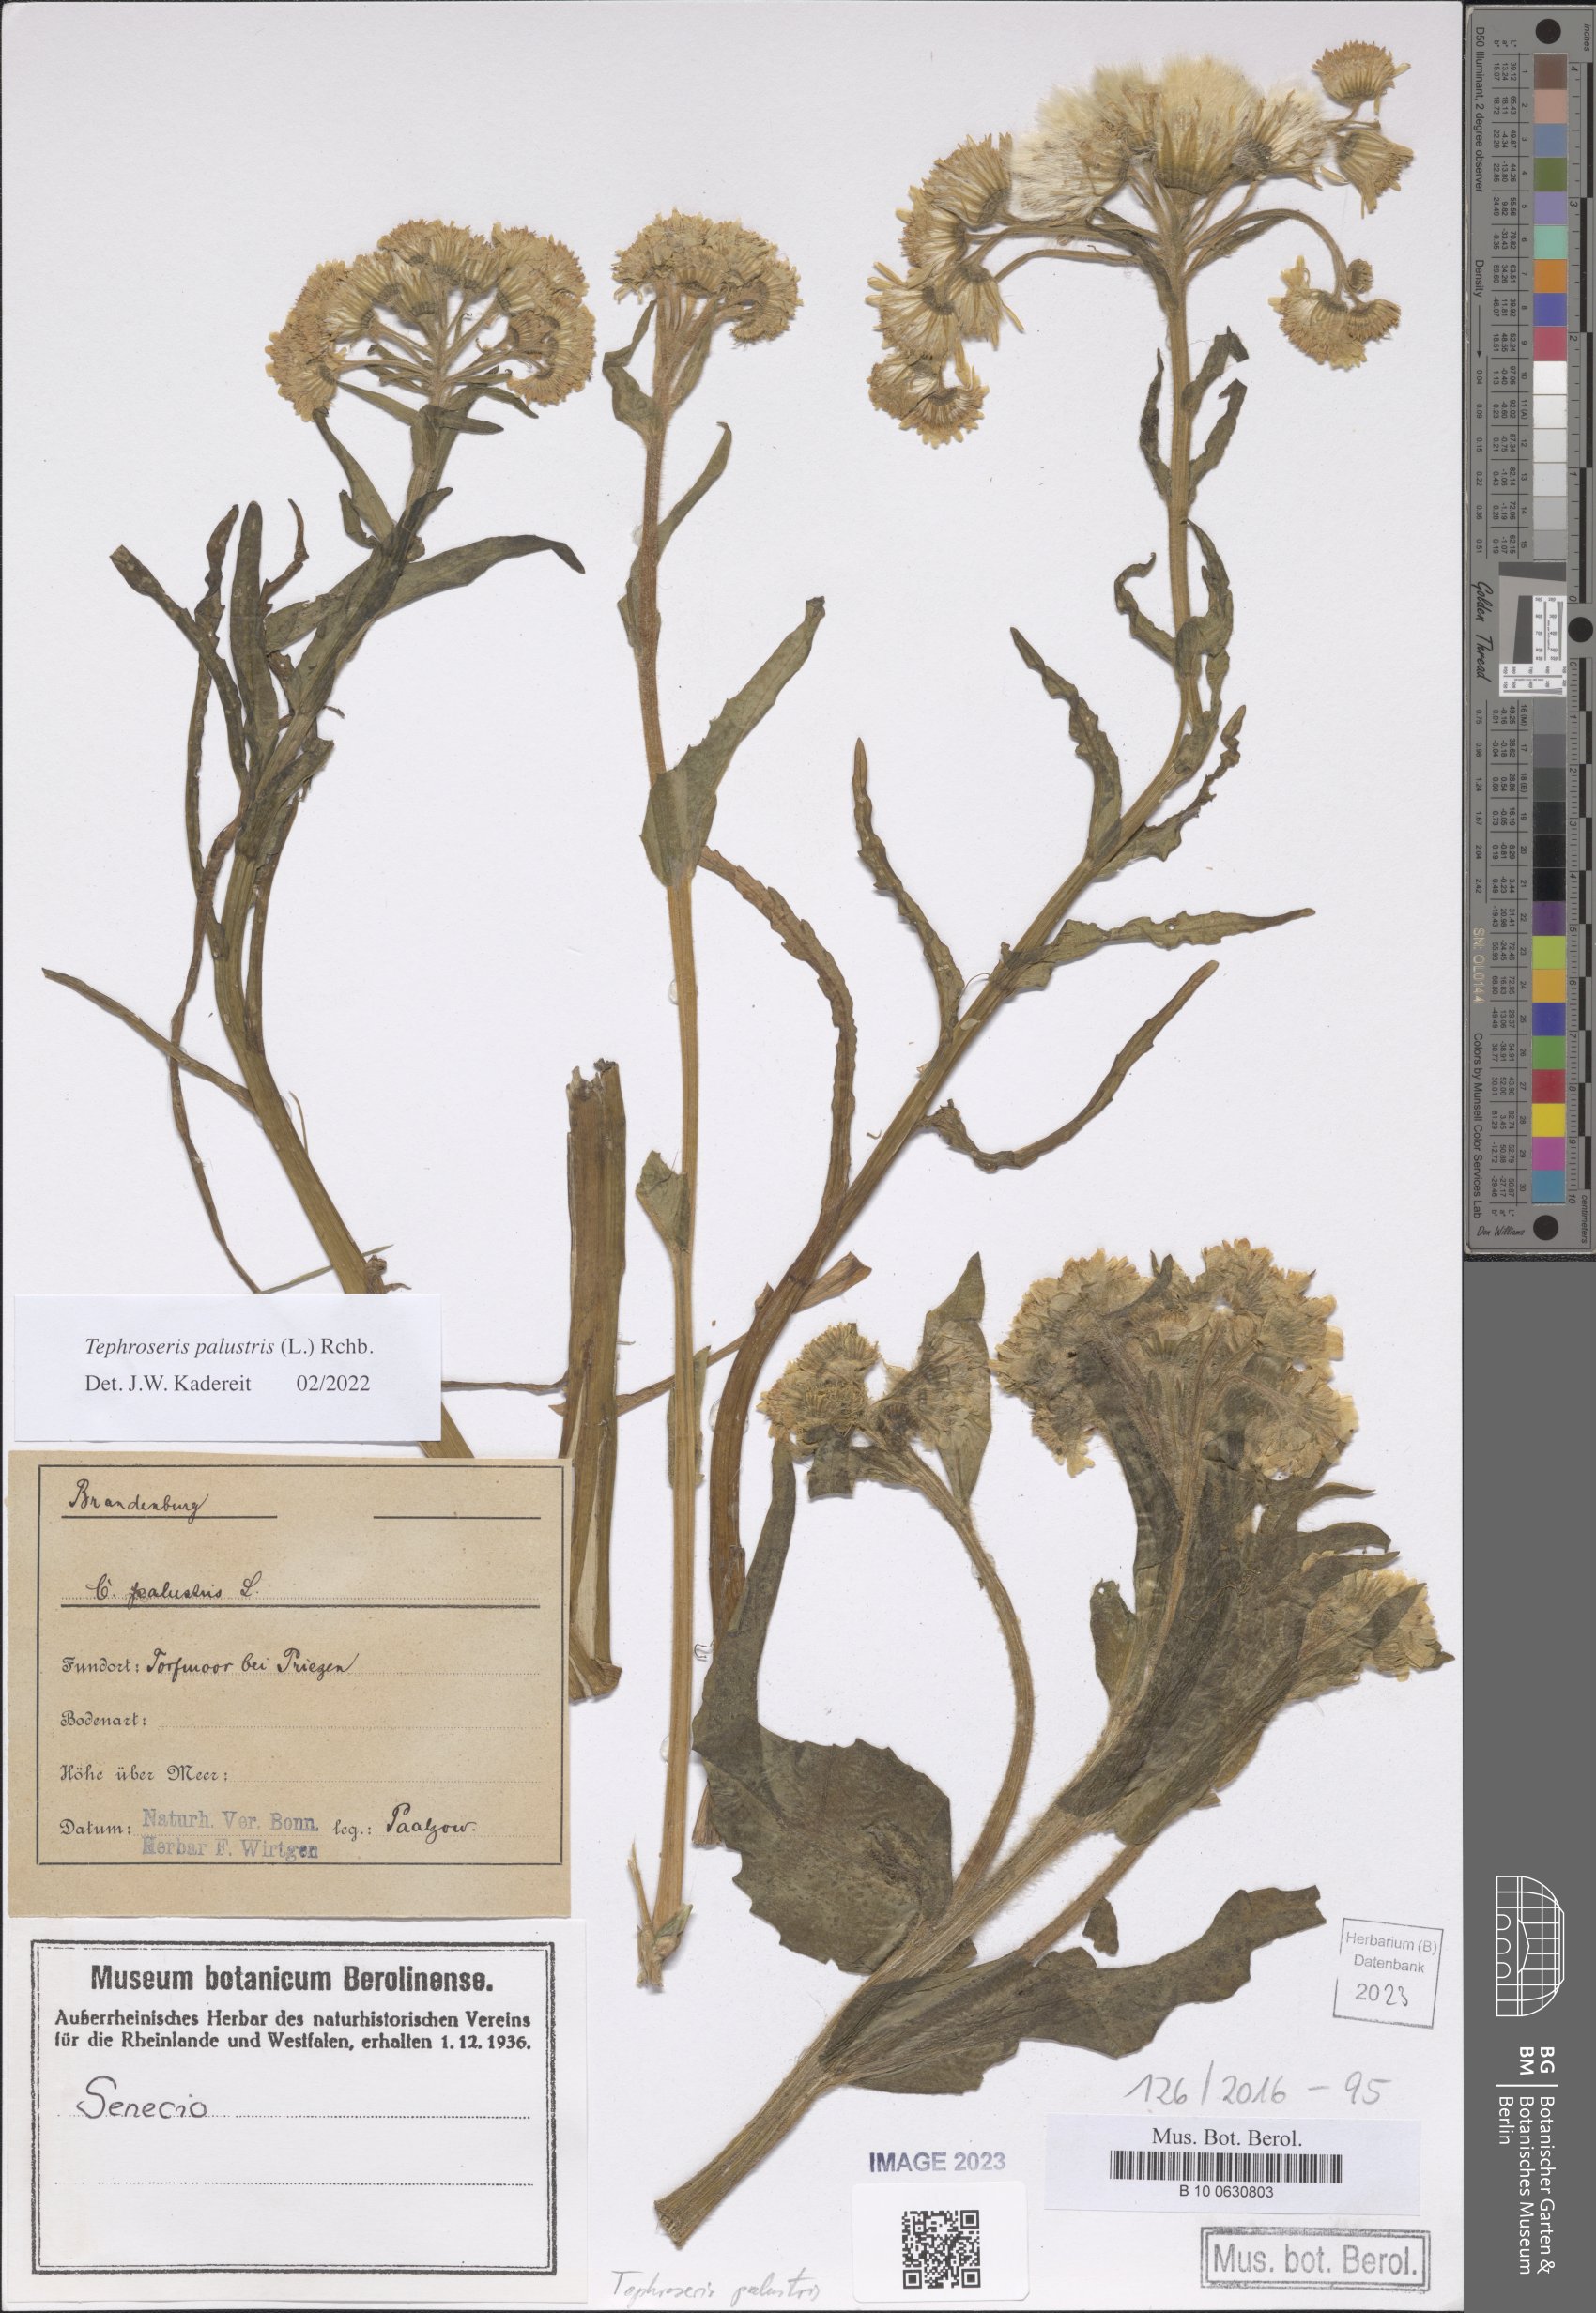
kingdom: Plantae
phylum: Tracheophyta
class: Magnoliopsida
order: Asterales
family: Asteraceae
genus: Tephroseris
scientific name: Tephroseris palustris
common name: Marsh fleawort
